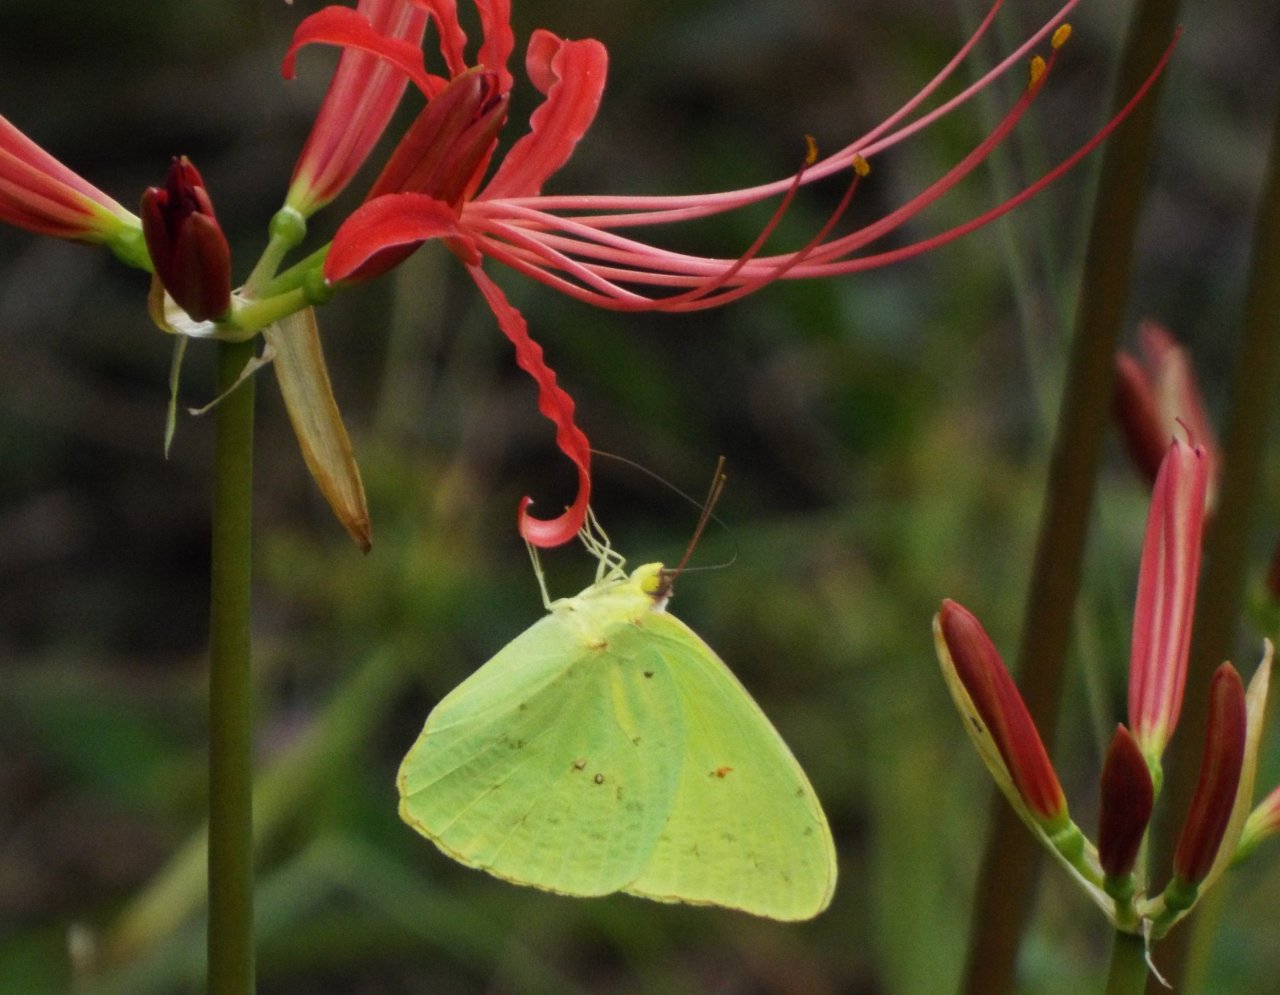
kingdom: Animalia
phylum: Arthropoda
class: Insecta
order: Lepidoptera
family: Pieridae
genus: Phoebis
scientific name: Phoebis sennae
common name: Cloudless Sulphur
